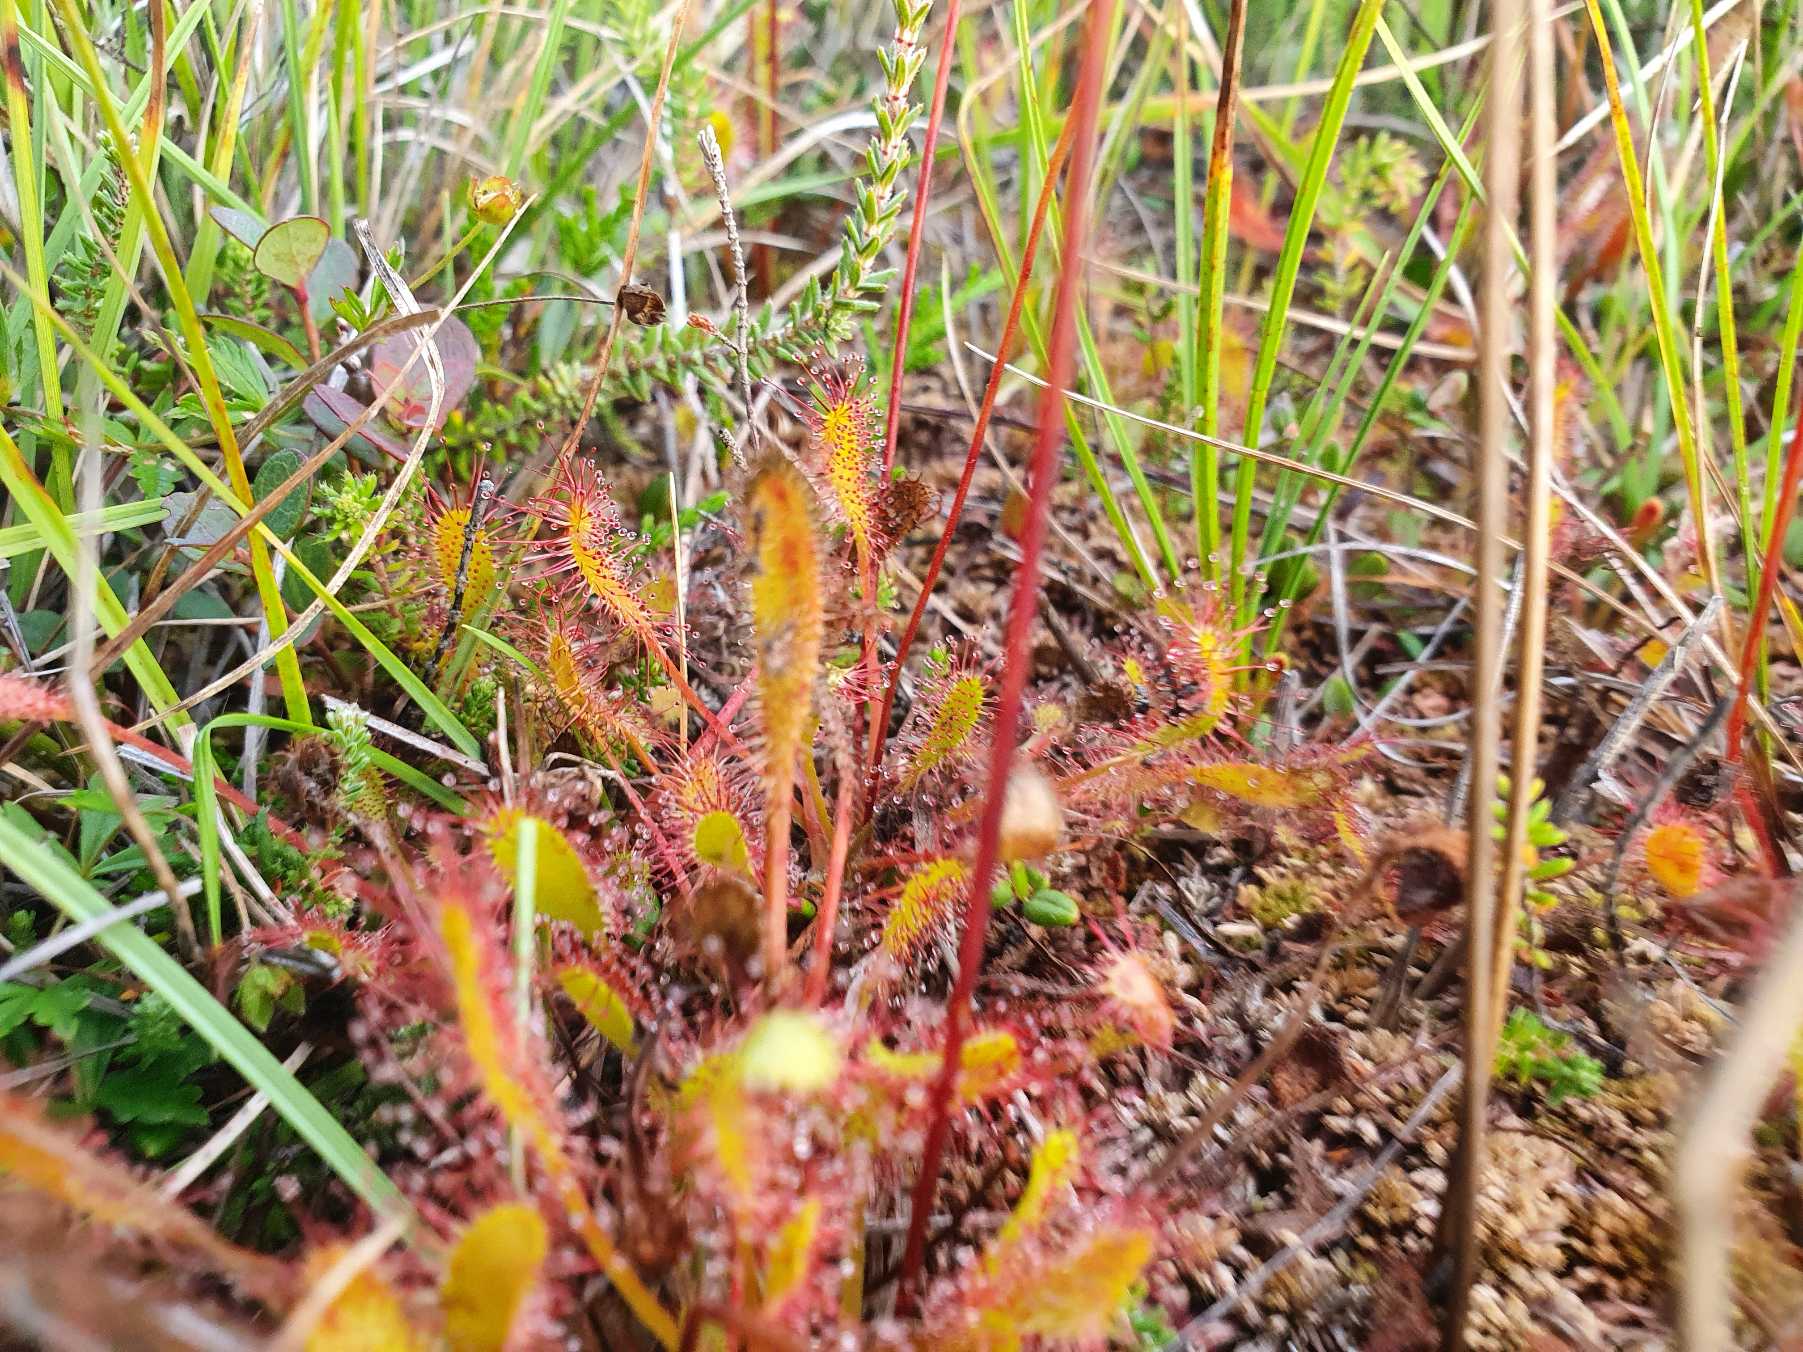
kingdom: Plantae
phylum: Tracheophyta
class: Magnoliopsida
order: Caryophyllales
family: Droseraceae
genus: Drosera
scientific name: Drosera anglica
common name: Langbladet soldug
